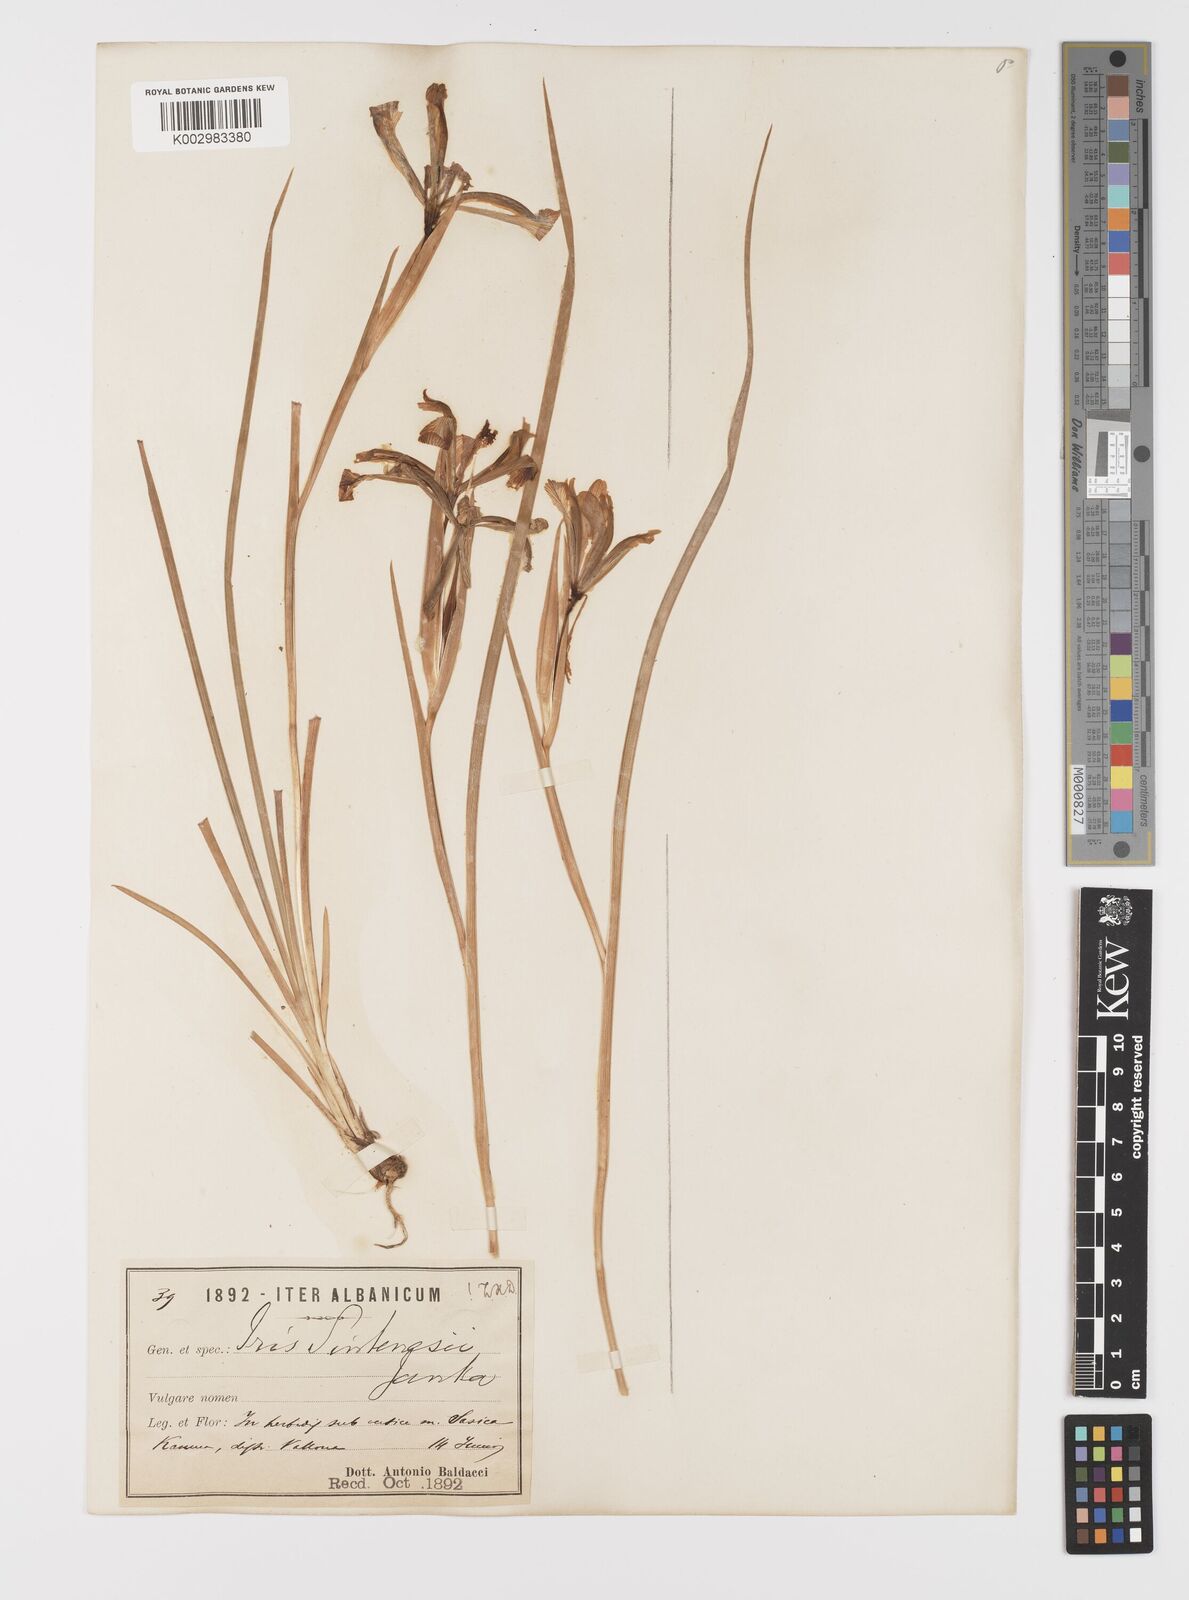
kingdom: Plantae
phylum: Tracheophyta
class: Liliopsida
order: Asparagales
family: Iridaceae
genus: Iris
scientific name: Iris sintenisii
